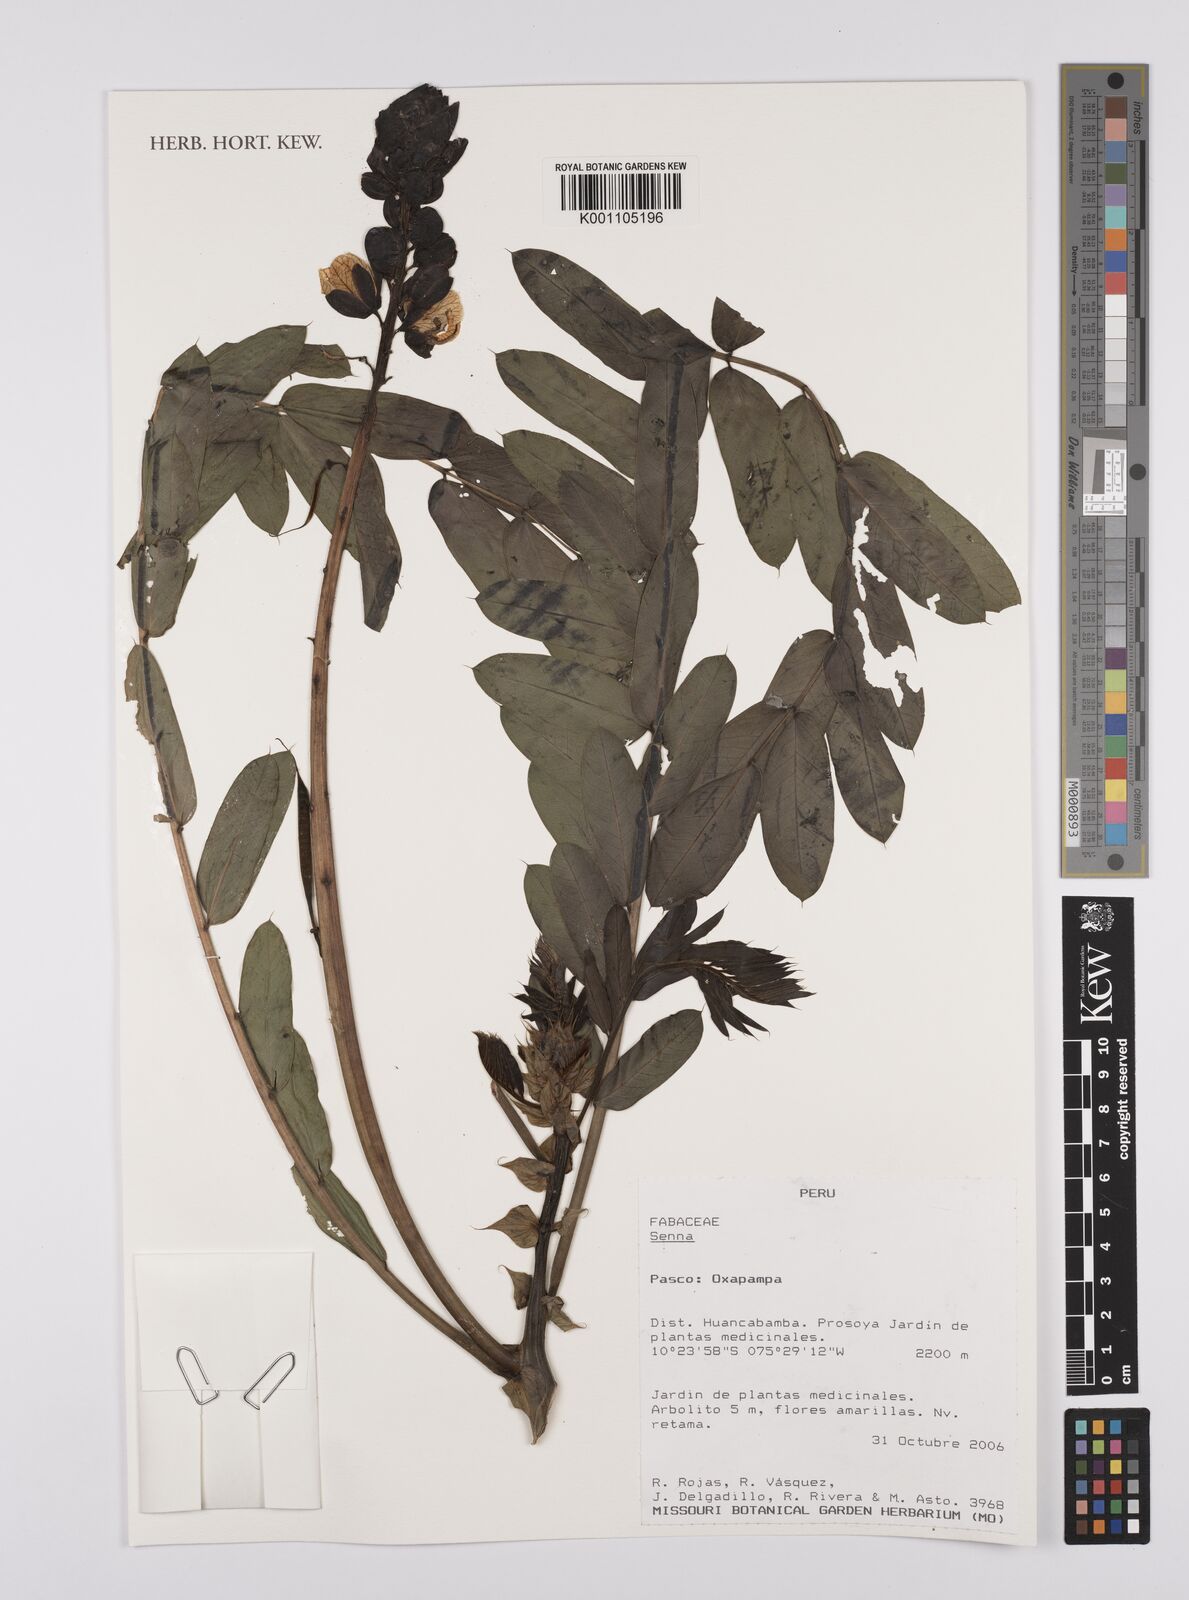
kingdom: Plantae
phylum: Tracheophyta
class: Magnoliopsida
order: Fabales
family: Fabaceae
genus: Senna
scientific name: Senna
